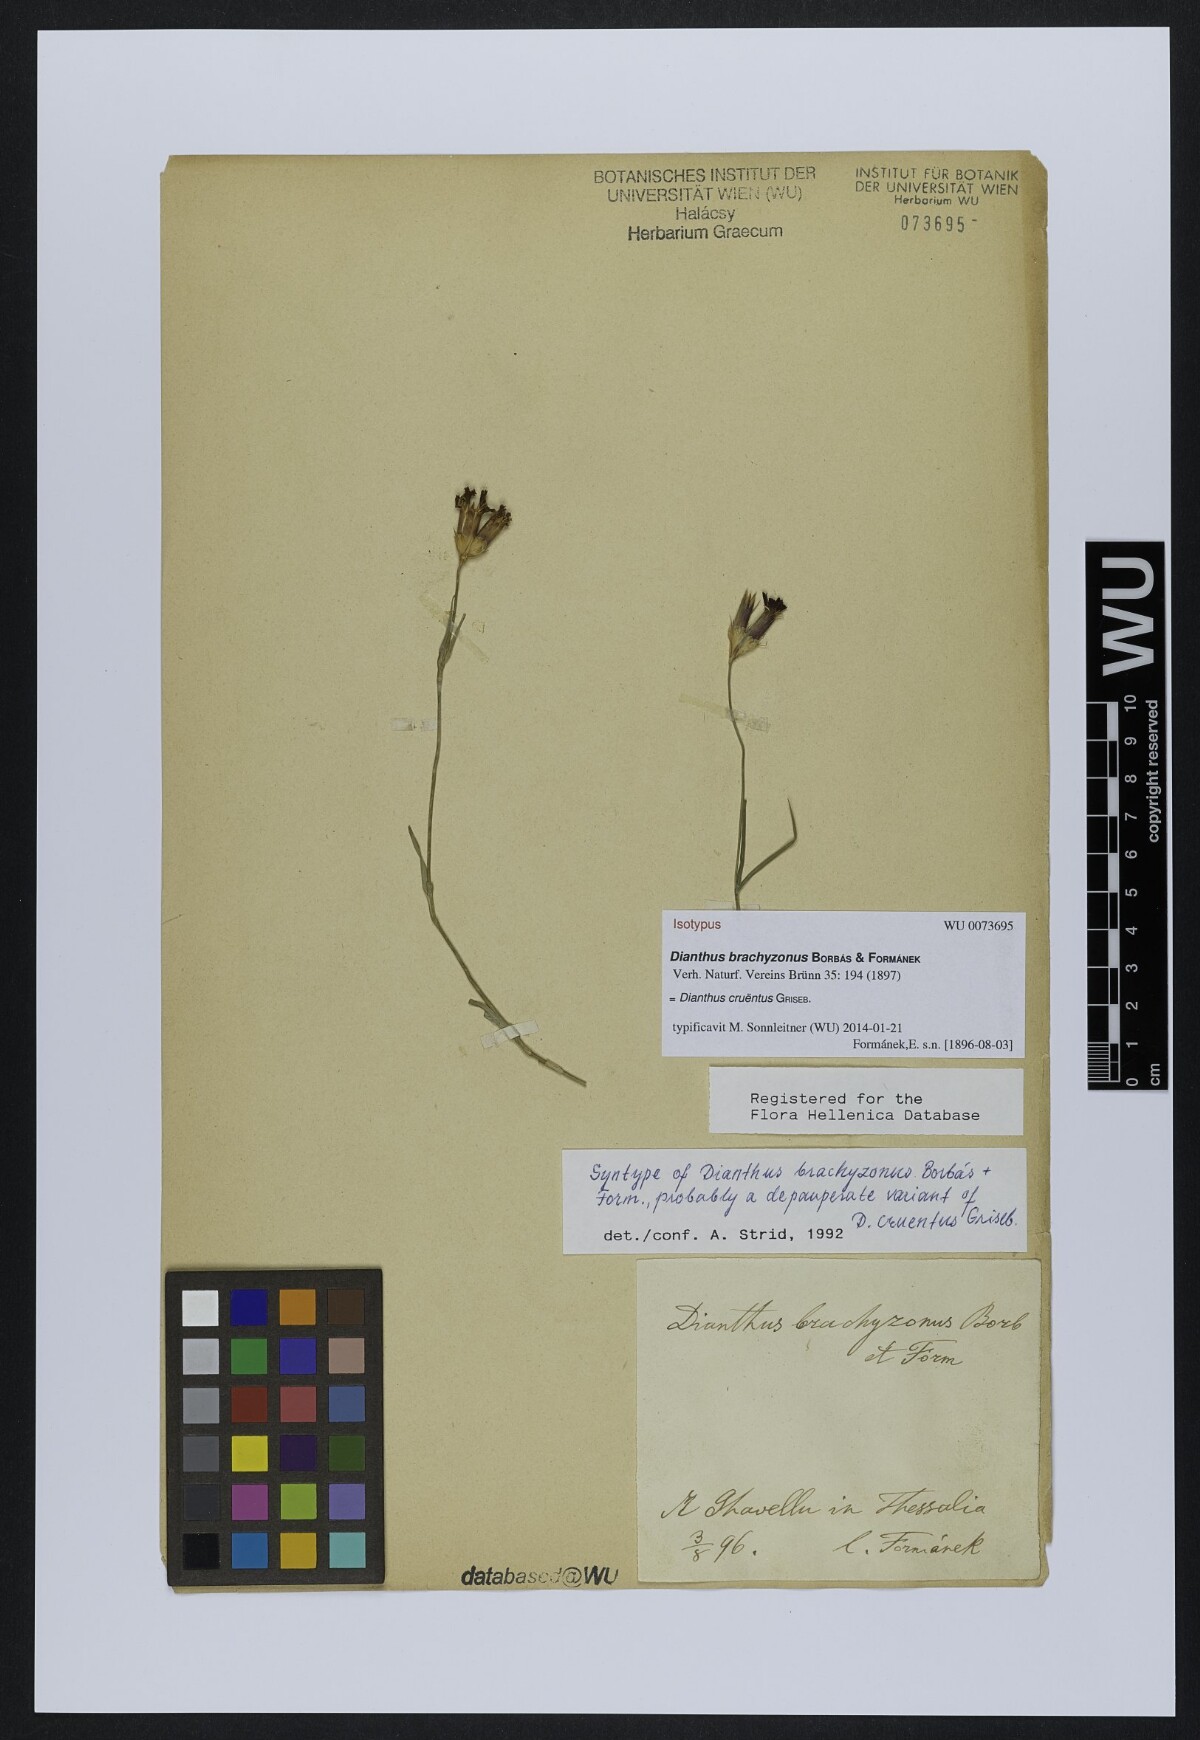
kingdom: Plantae
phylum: Tracheophyta
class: Magnoliopsida
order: Caryophyllales
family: Caryophyllaceae
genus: Dianthus
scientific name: Dianthus cruentus
